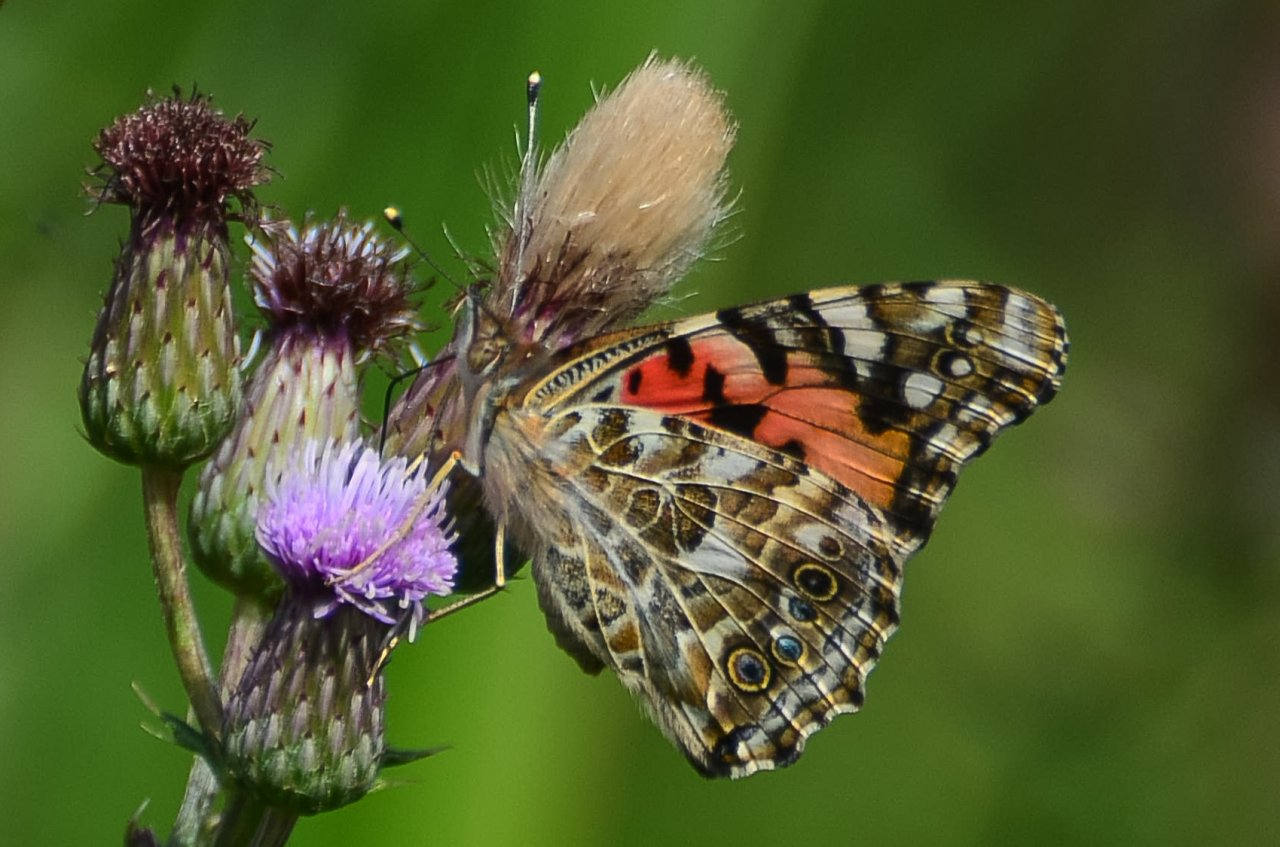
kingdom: Animalia
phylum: Arthropoda
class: Insecta
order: Lepidoptera
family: Nymphalidae
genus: Vanessa
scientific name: Vanessa cardui
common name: Painted Lady
